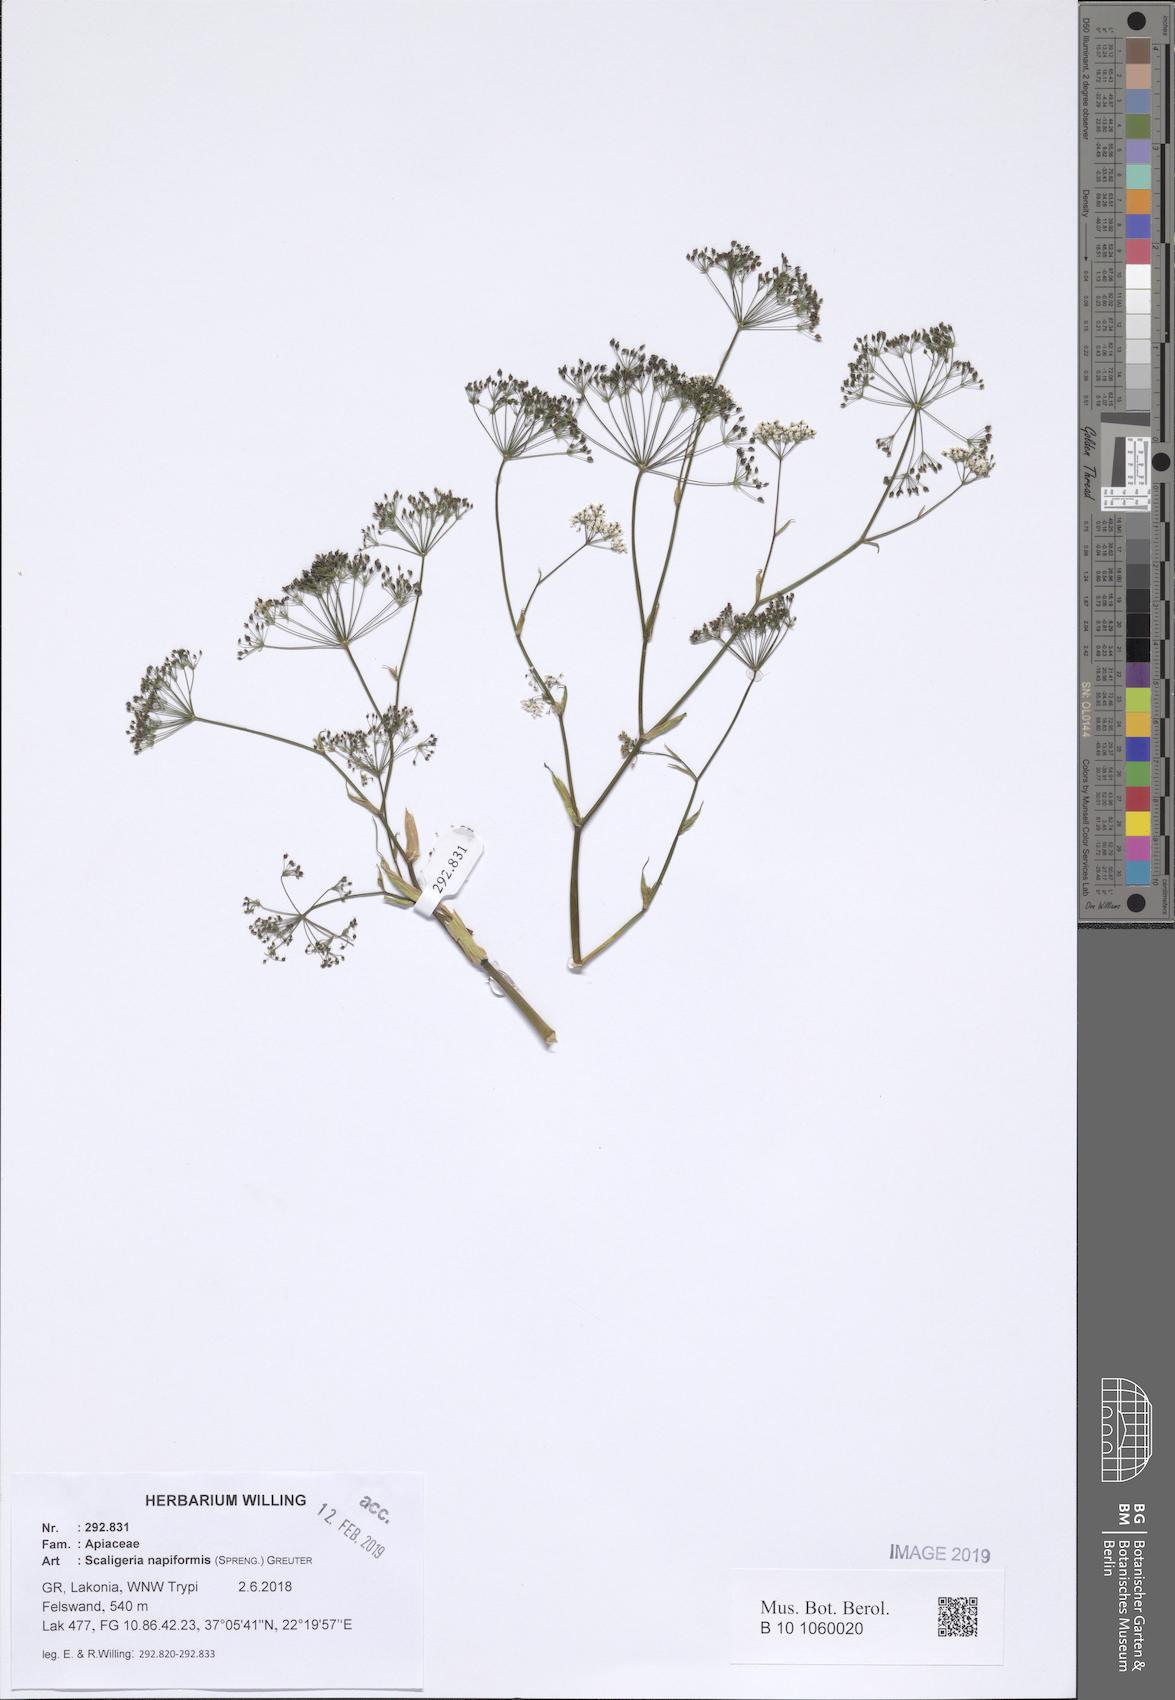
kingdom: Plantae
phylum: Tracheophyta
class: Magnoliopsida
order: Apiales
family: Apiaceae
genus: Scaligeria
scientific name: Scaligeria napiformis
